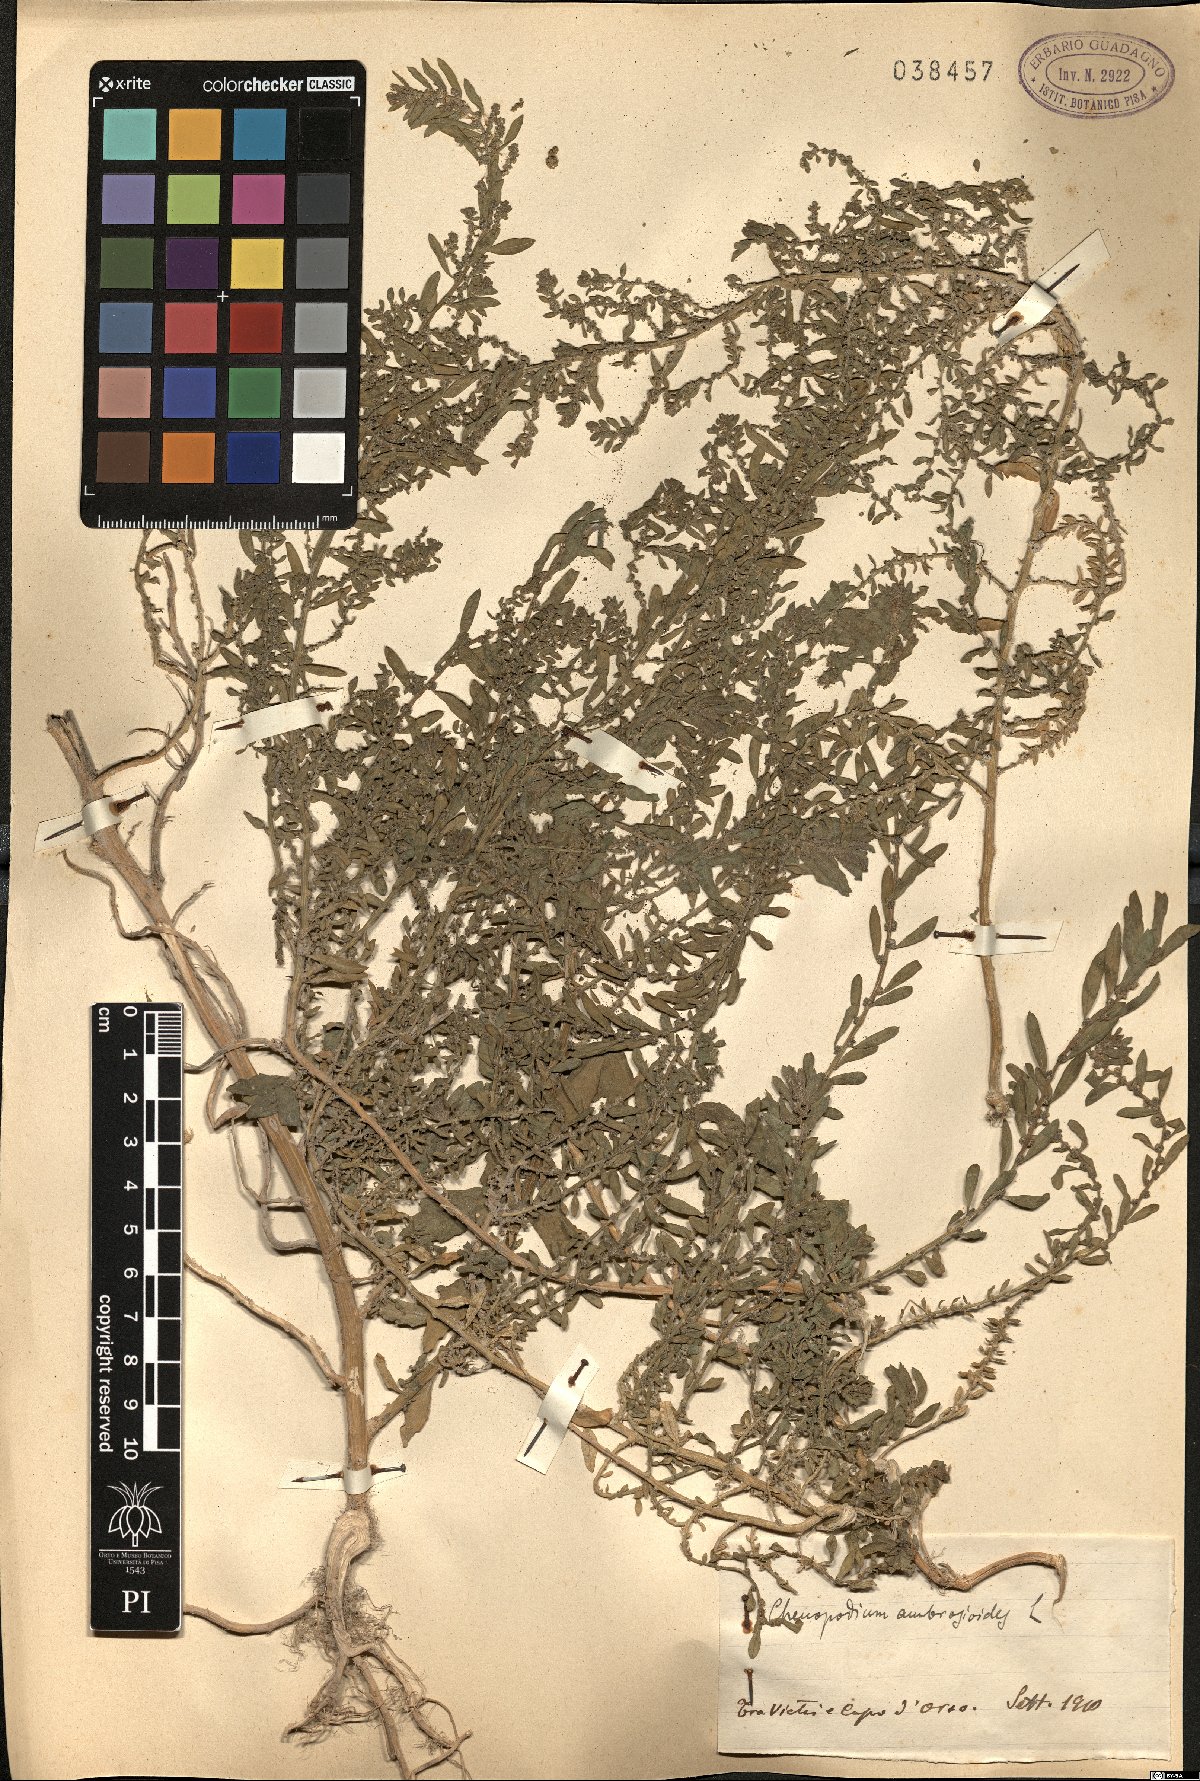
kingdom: Plantae
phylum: Tracheophyta
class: Magnoliopsida
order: Caryophyllales
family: Amaranthaceae
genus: Dysphania
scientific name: Dysphania ambrosioides
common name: Wormseed
